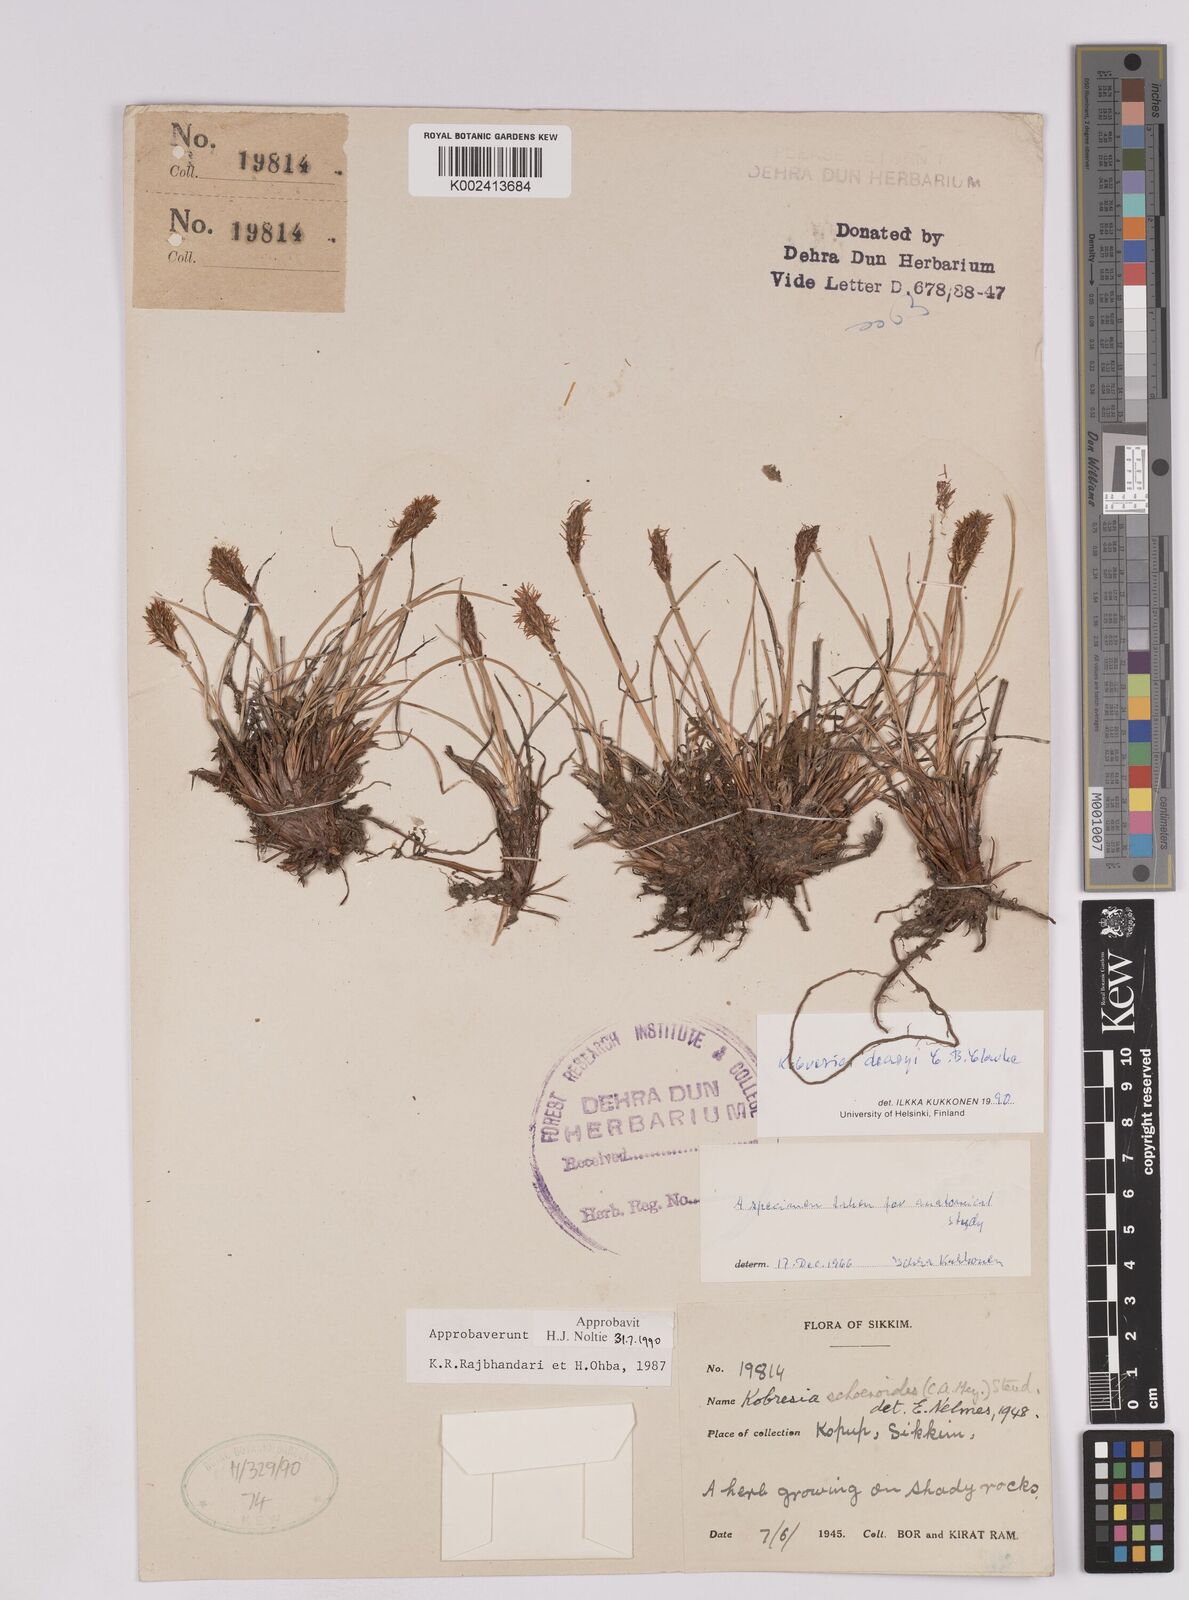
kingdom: Plantae
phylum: Tracheophyta
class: Liliopsida
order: Poales
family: Cyperaceae
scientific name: Cyperaceae
